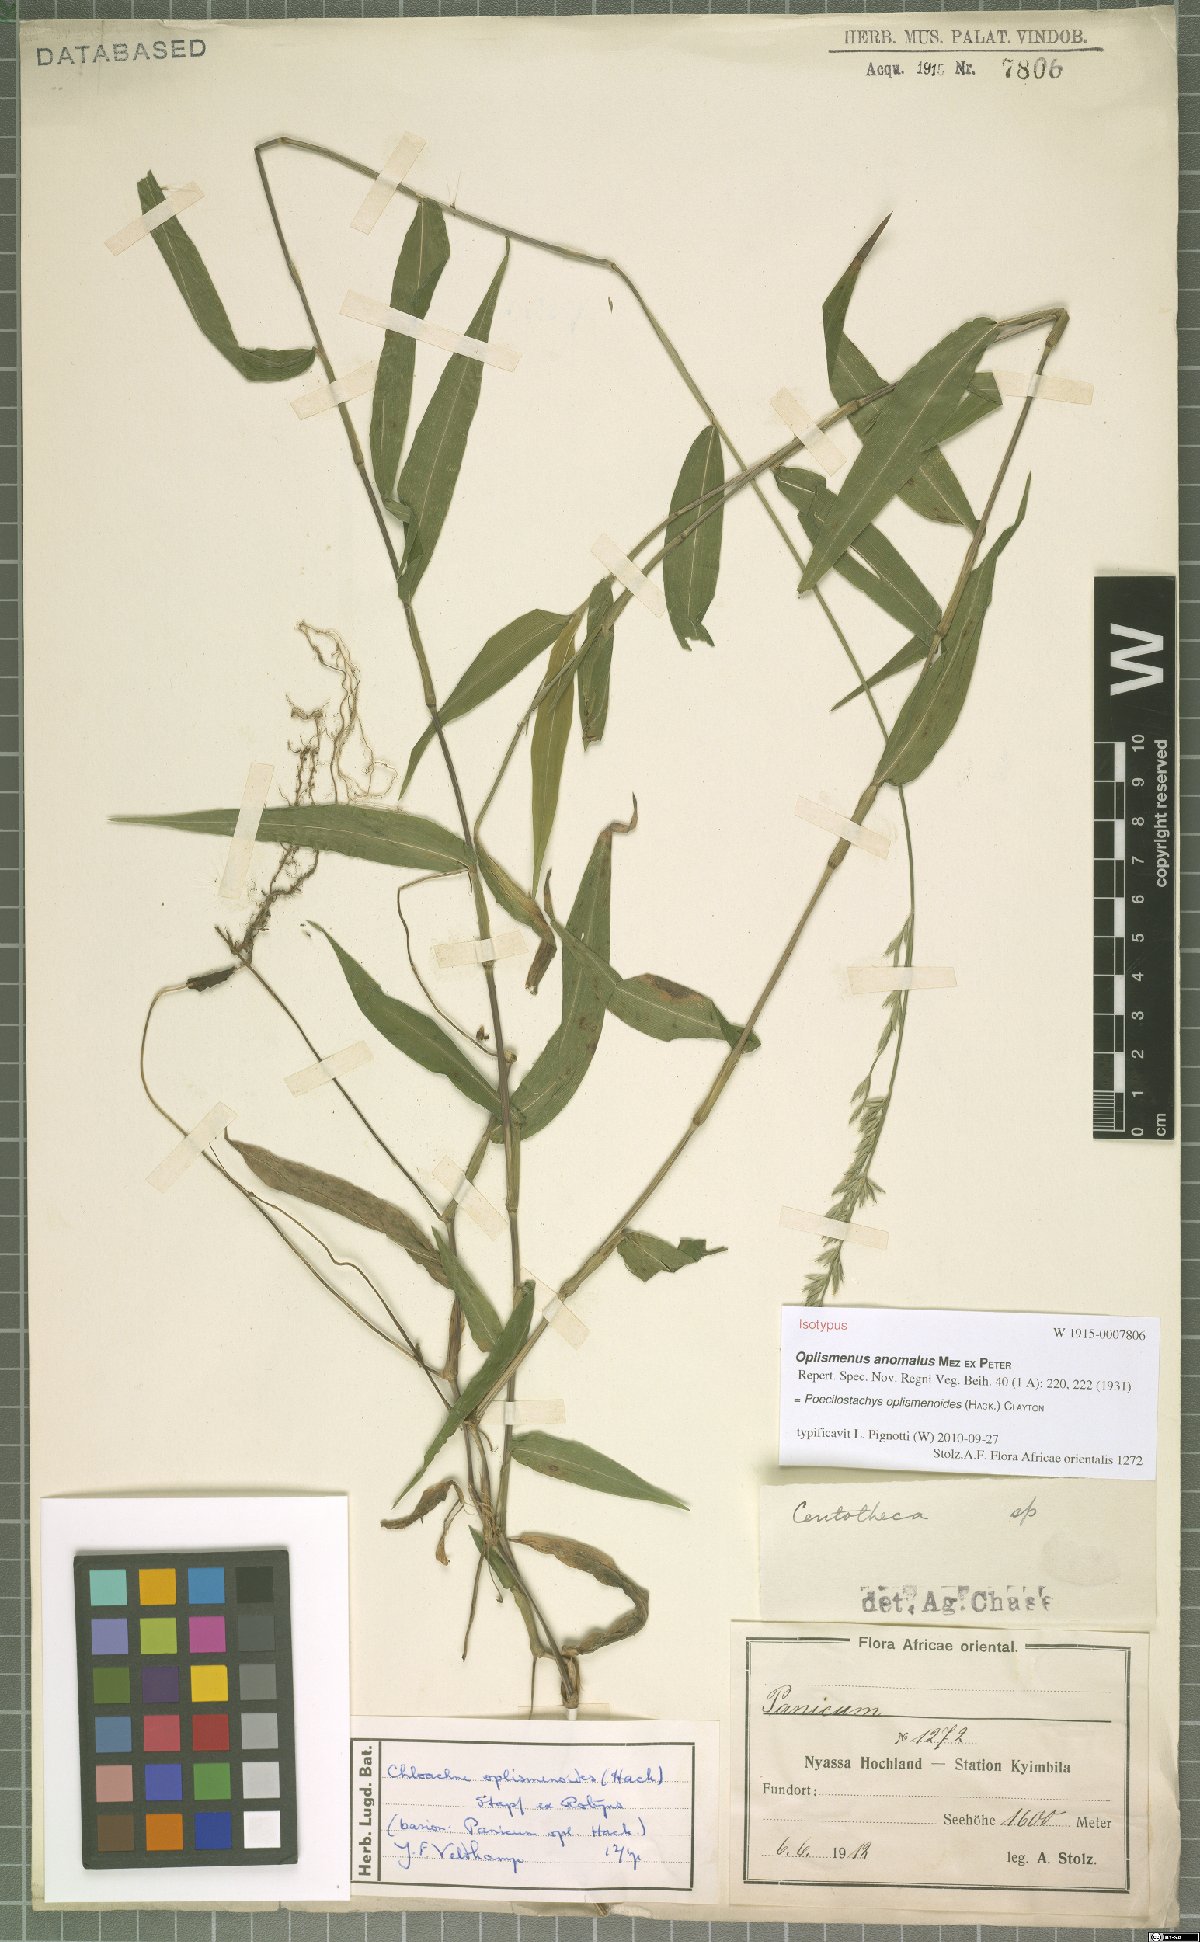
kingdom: Plantae
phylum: Tracheophyta
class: Liliopsida
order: Poales
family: Poaceae
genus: Poecilostachys
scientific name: Poecilostachys oplismenoides
